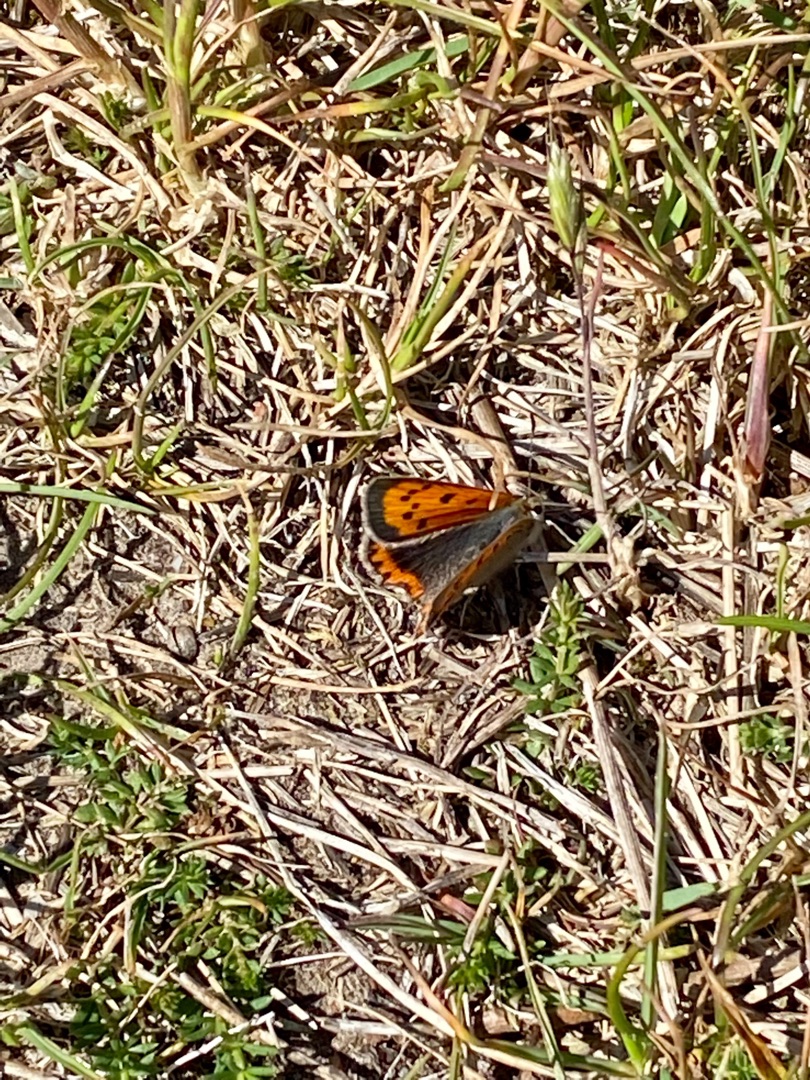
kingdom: Animalia
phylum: Arthropoda
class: Insecta
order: Lepidoptera
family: Lycaenidae
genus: Lycaena
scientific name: Lycaena phlaeas
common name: Lille ildfugl
